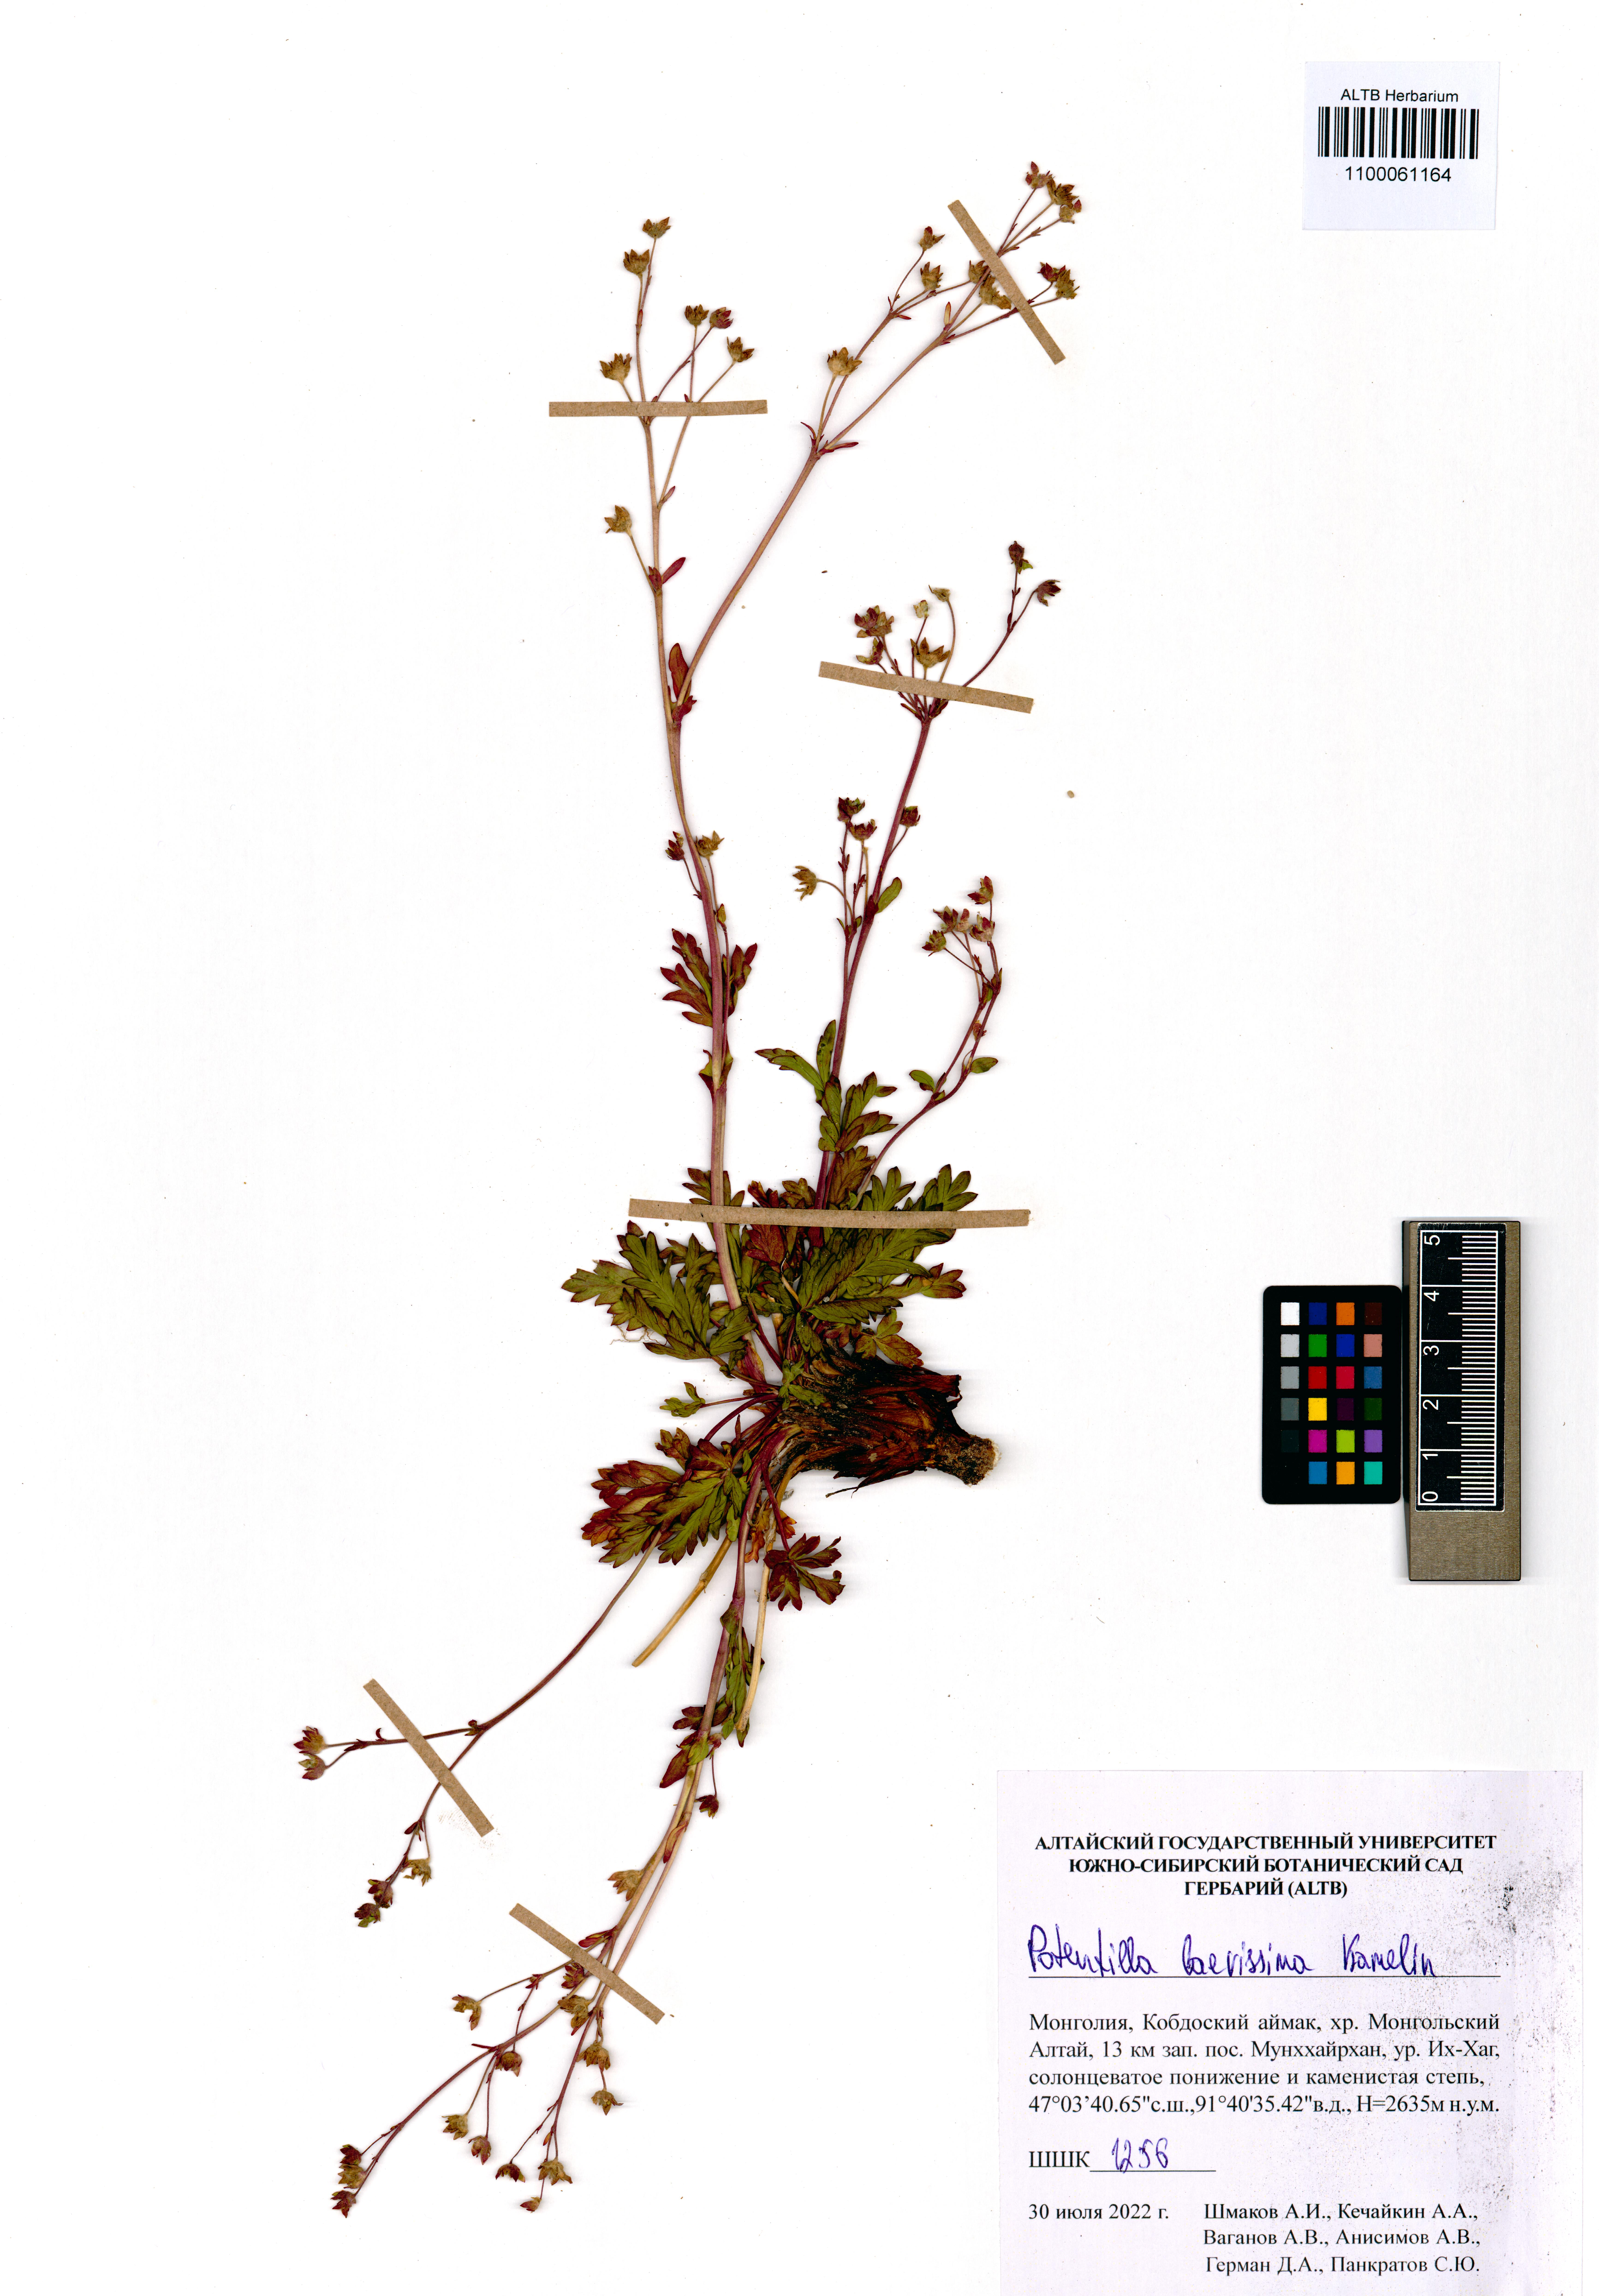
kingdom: Plantae
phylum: Tracheophyta
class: Magnoliopsida
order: Rosales
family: Rosaceae
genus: Potentilla
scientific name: Potentilla laevissima
